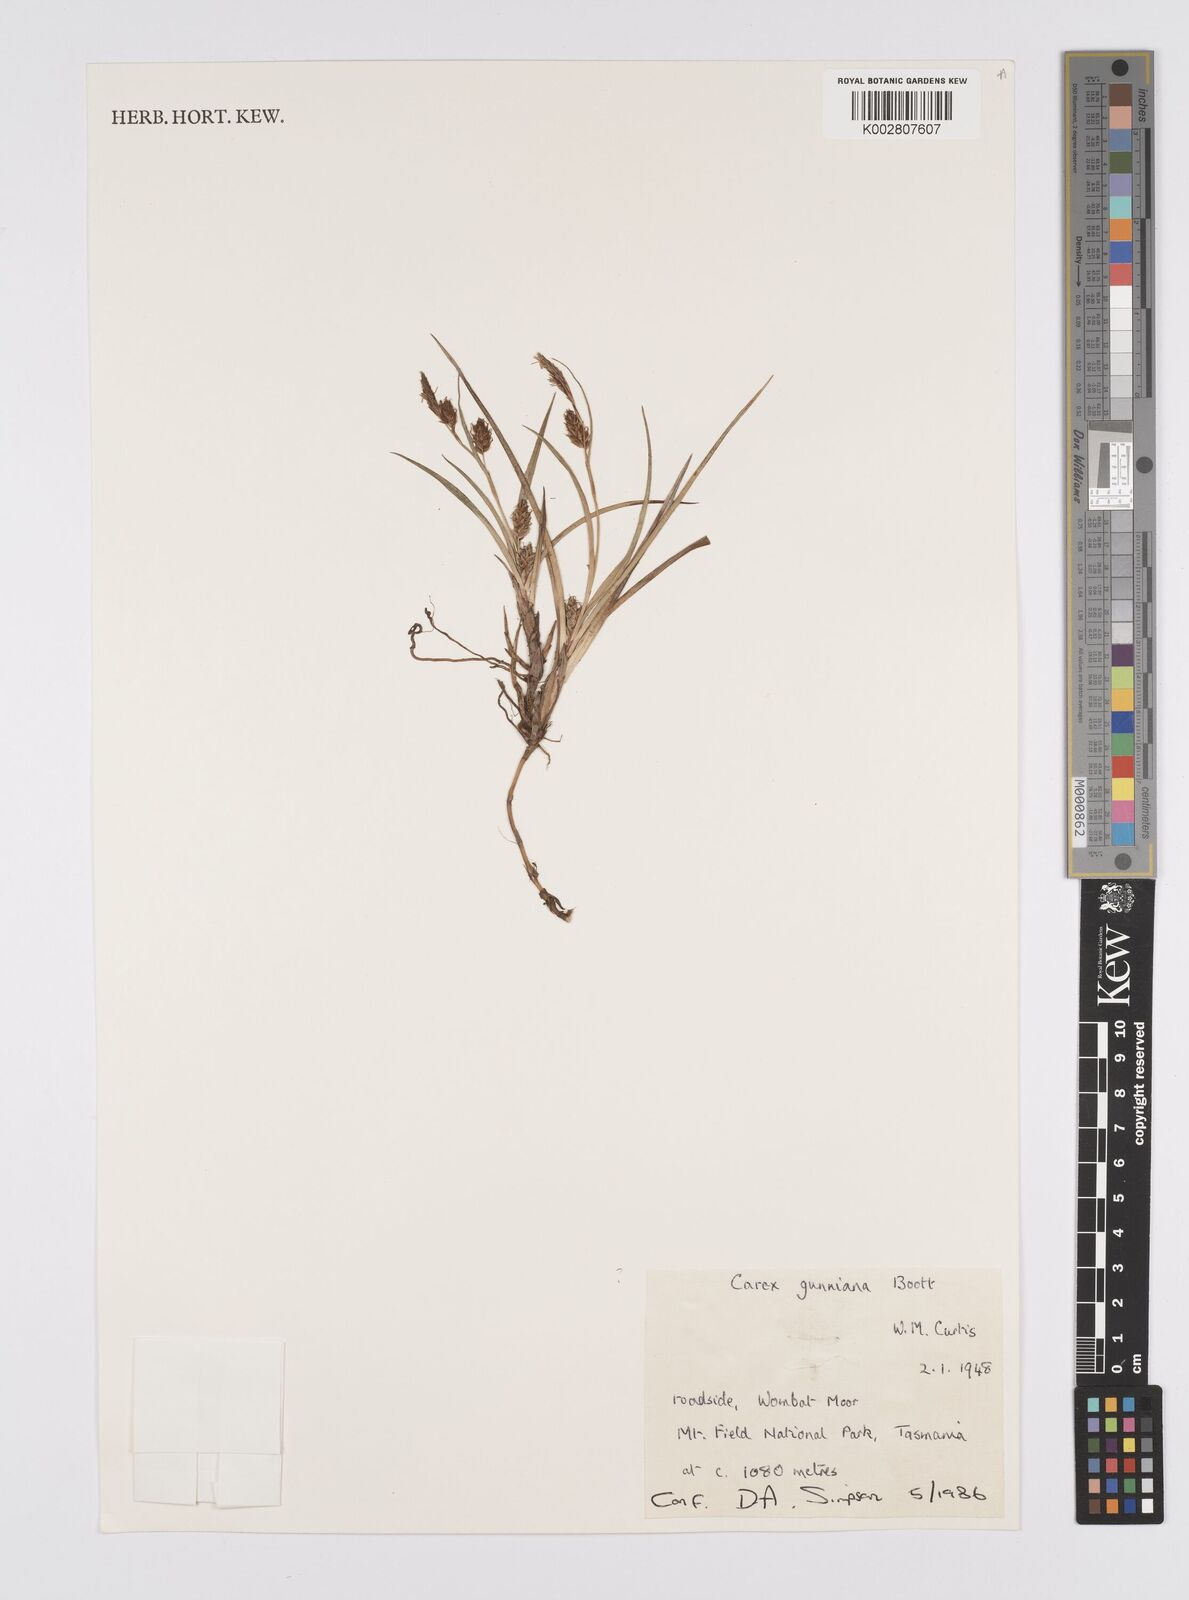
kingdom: Plantae
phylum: Tracheophyta
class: Liliopsida
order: Poales
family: Cyperaceae
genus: Carex
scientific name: Carex gunniana
